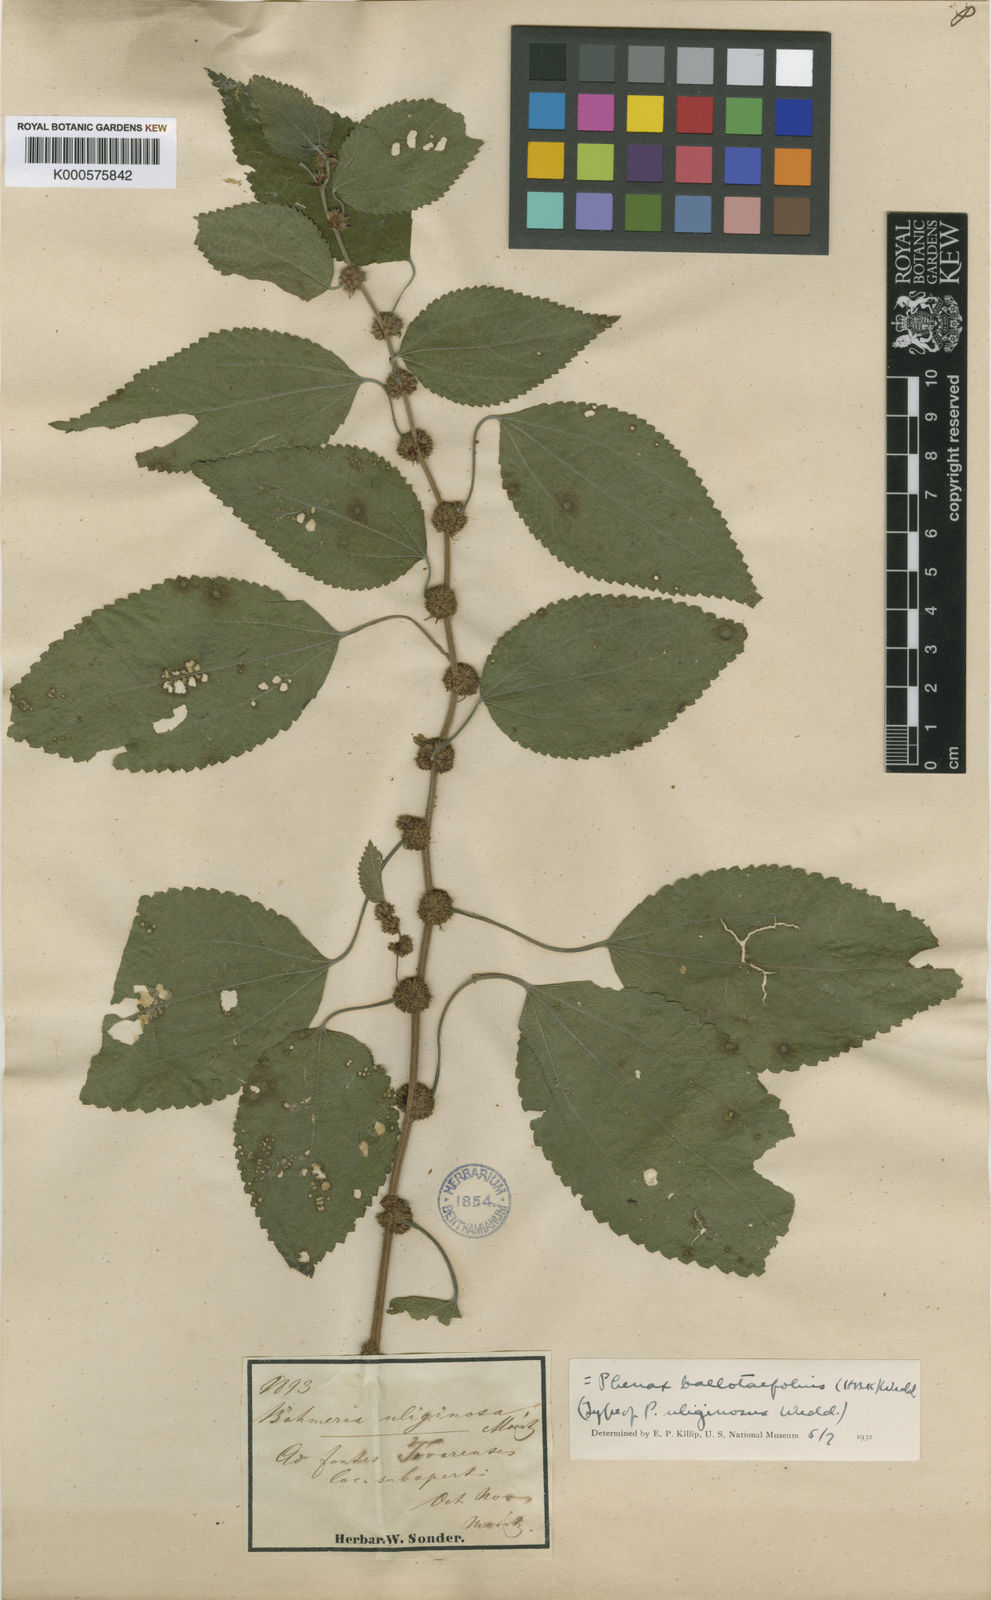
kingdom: Plantae
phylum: Tracheophyta
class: Magnoliopsida
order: Rosales
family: Urticaceae
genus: Phenax
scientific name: Phenax uliginosus
